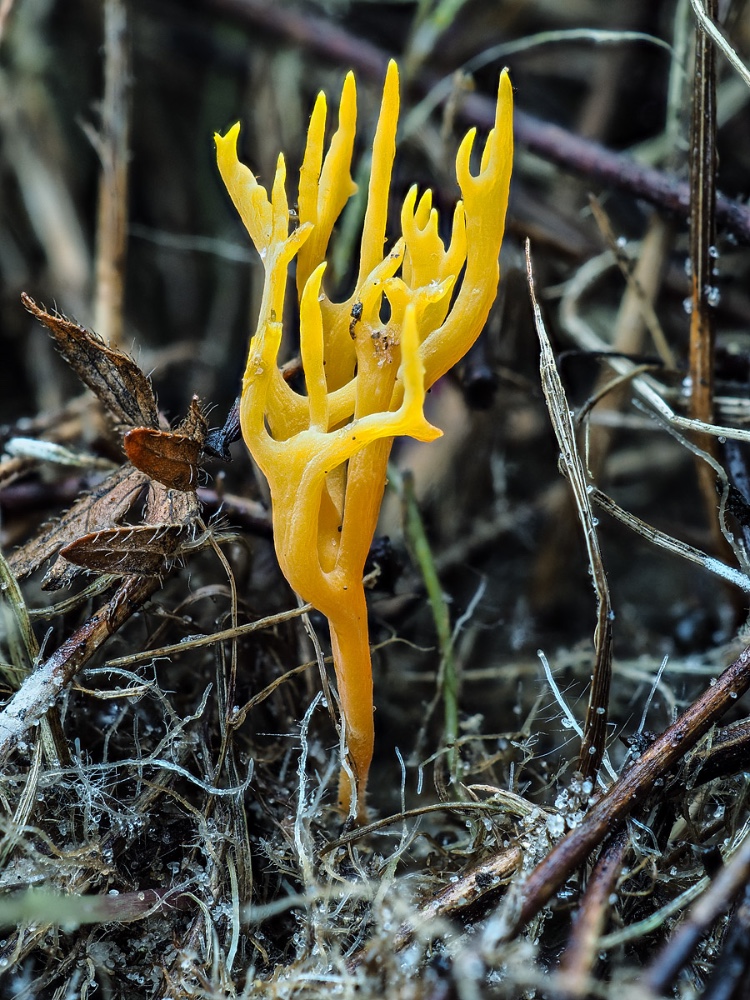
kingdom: Fungi
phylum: Basidiomycota
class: Agaricomycetes
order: Agaricales
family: Clavariaceae
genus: Ramariopsis
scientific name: Ramariopsis crocea
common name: gylden køllesvamp
